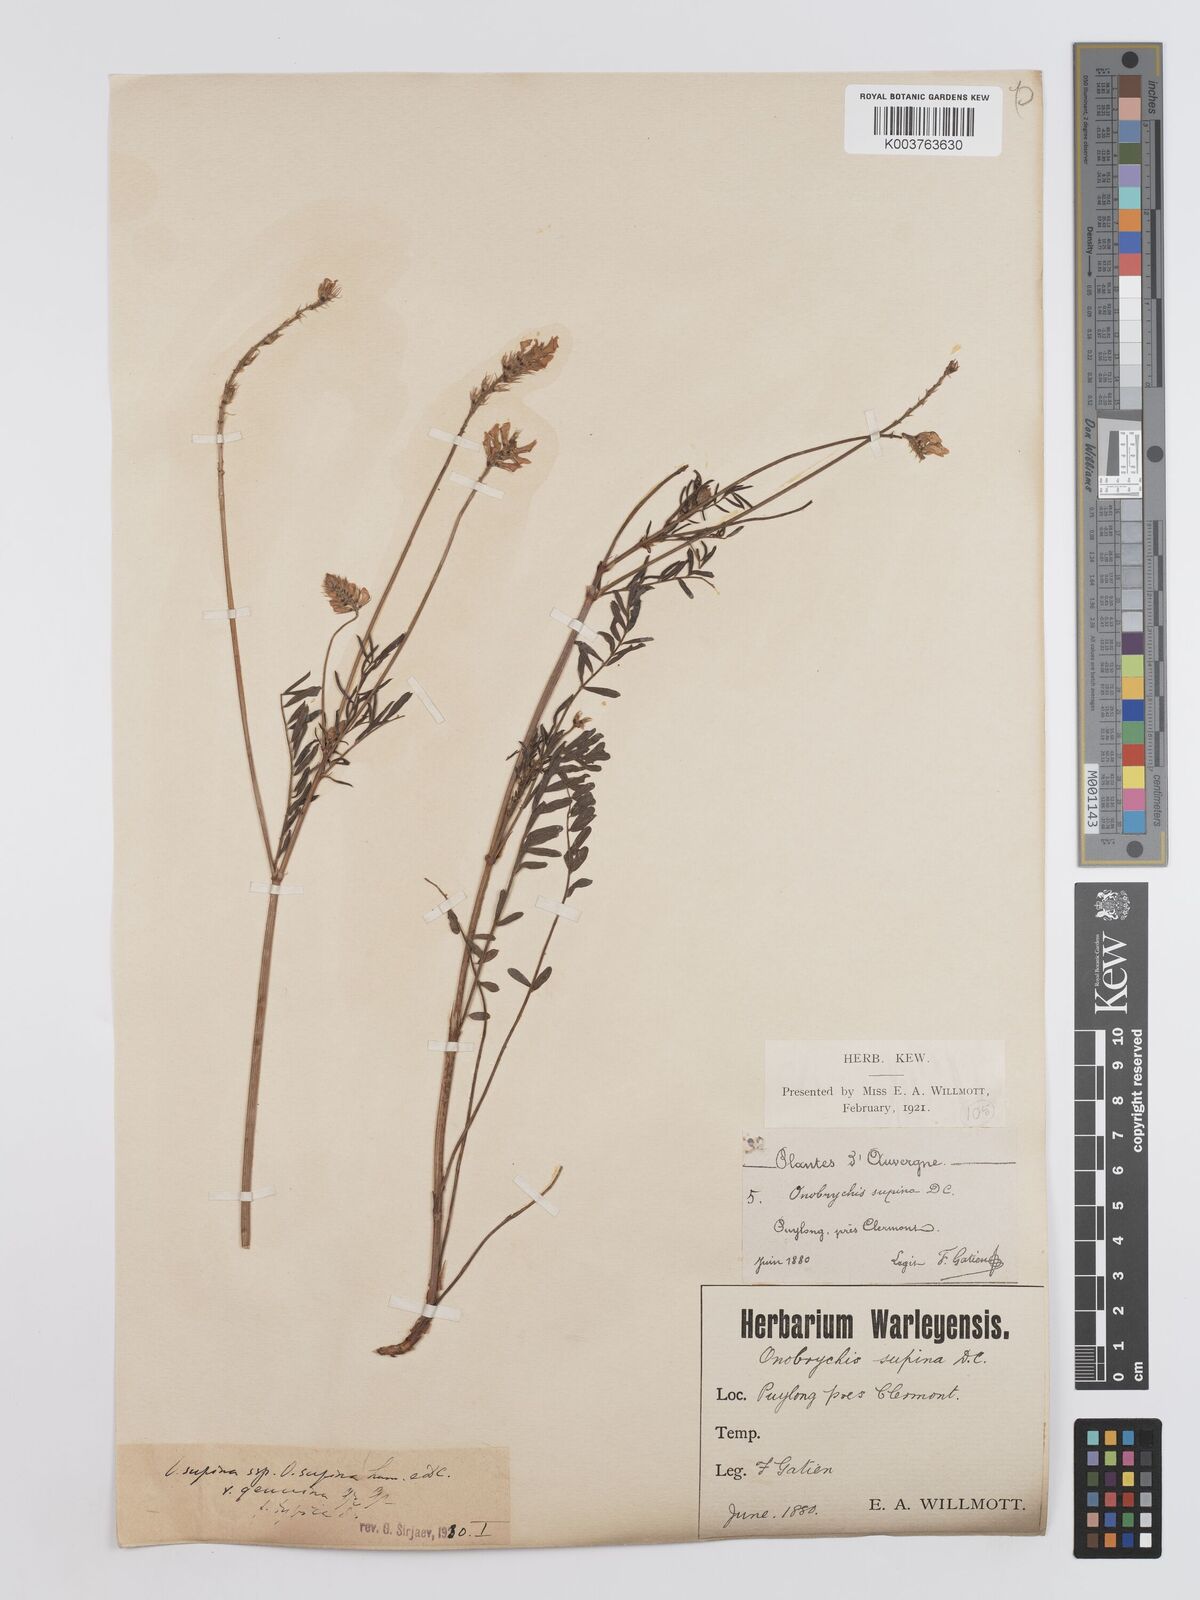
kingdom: Plantae
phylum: Tracheophyta
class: Magnoliopsida
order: Fabales
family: Fabaceae
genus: Onobrychis
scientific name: Onobrychis supina
